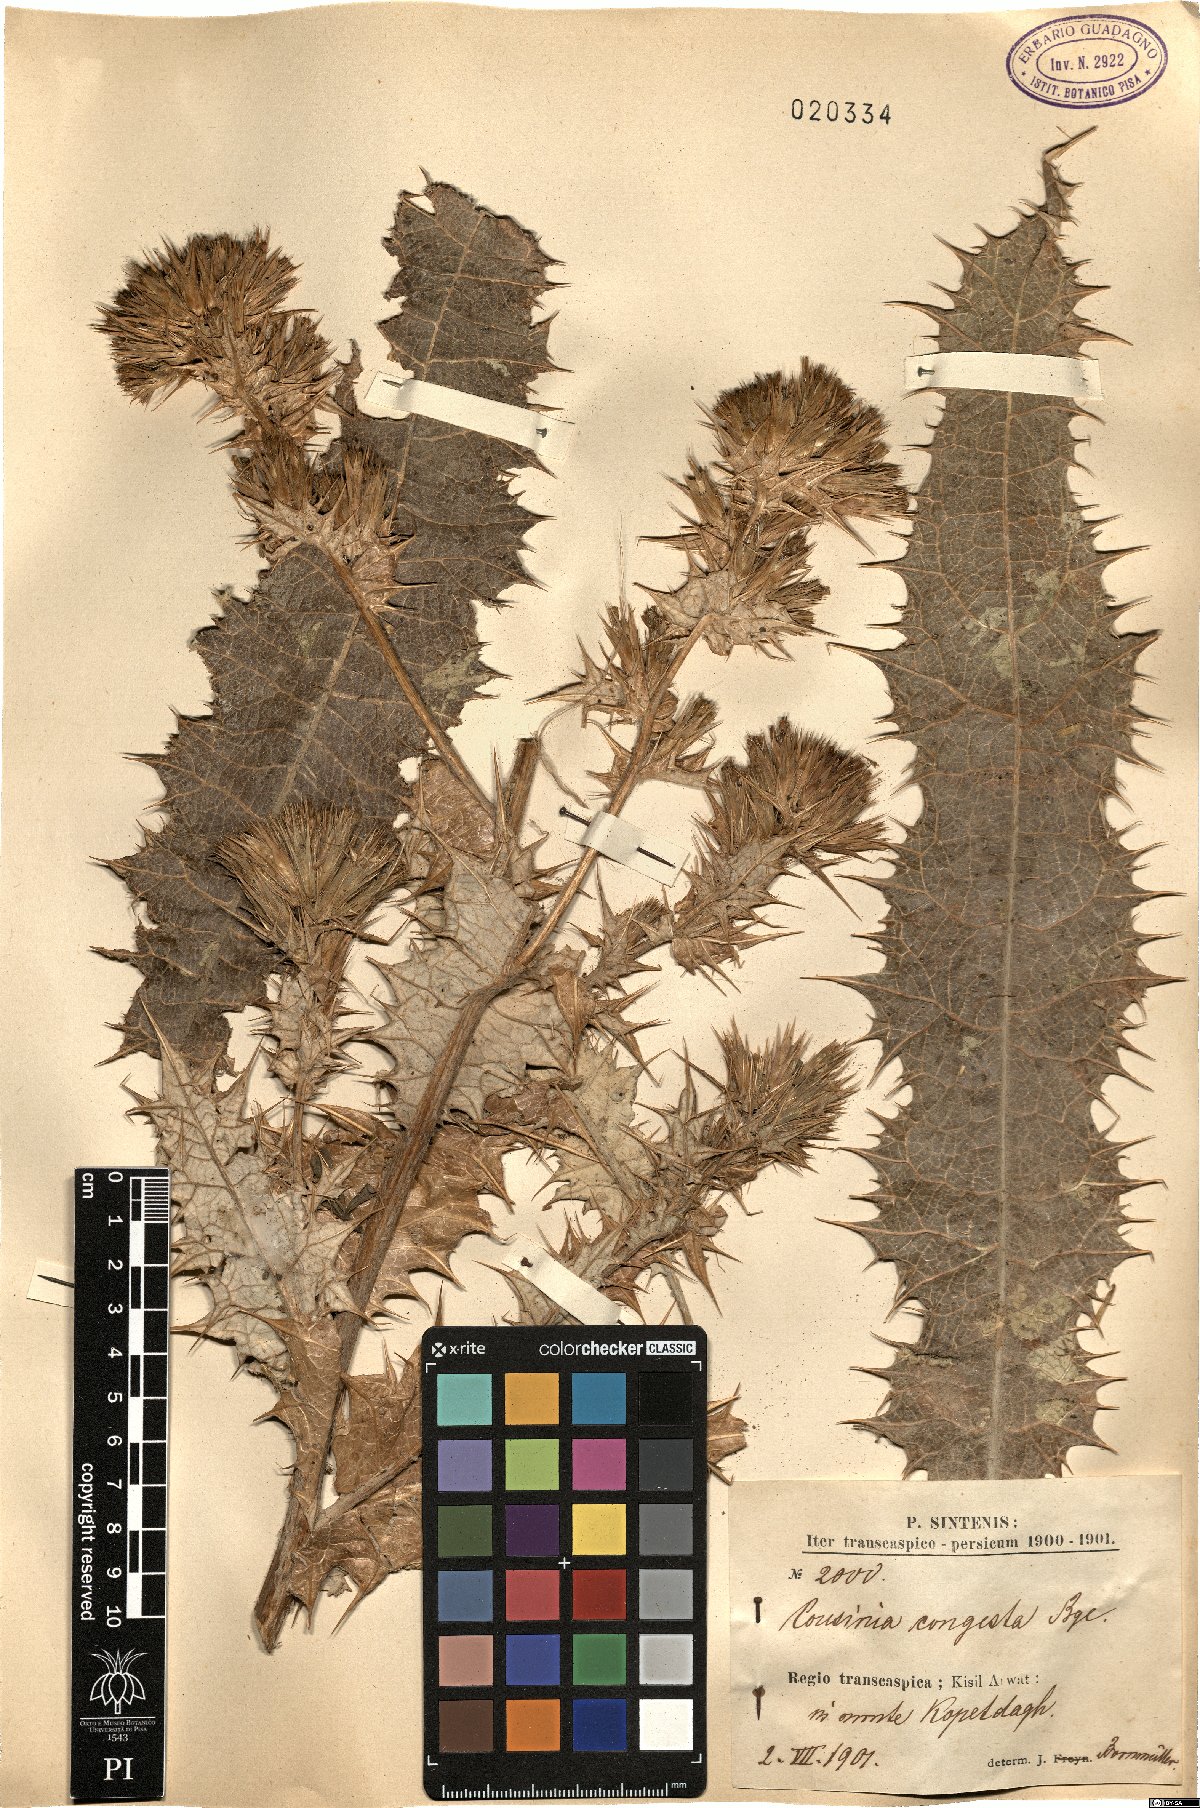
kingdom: Plantae
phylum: Tracheophyta
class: Magnoliopsida
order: Asterales
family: Asteraceae
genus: Cousinia
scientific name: Cousinia congesta
